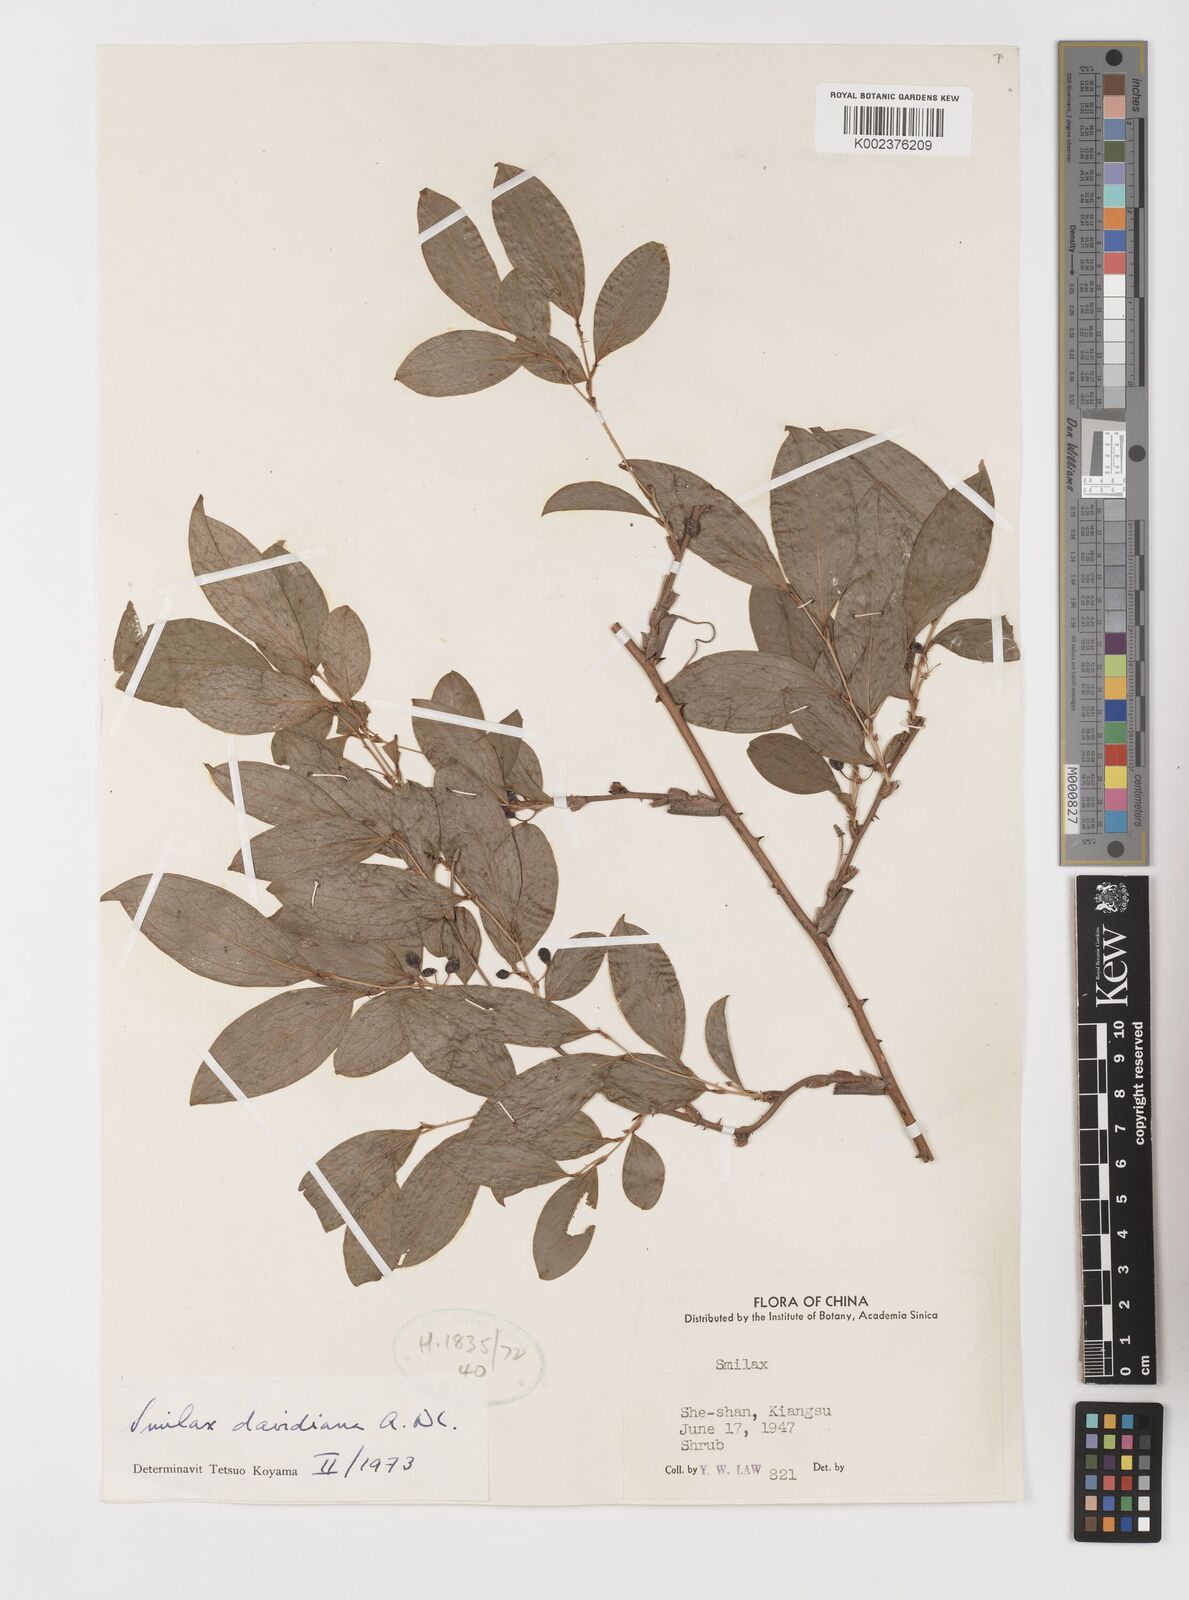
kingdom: Plantae
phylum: Tracheophyta
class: Liliopsida
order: Liliales
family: Smilacaceae
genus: Smilax
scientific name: Smilax davidiana
